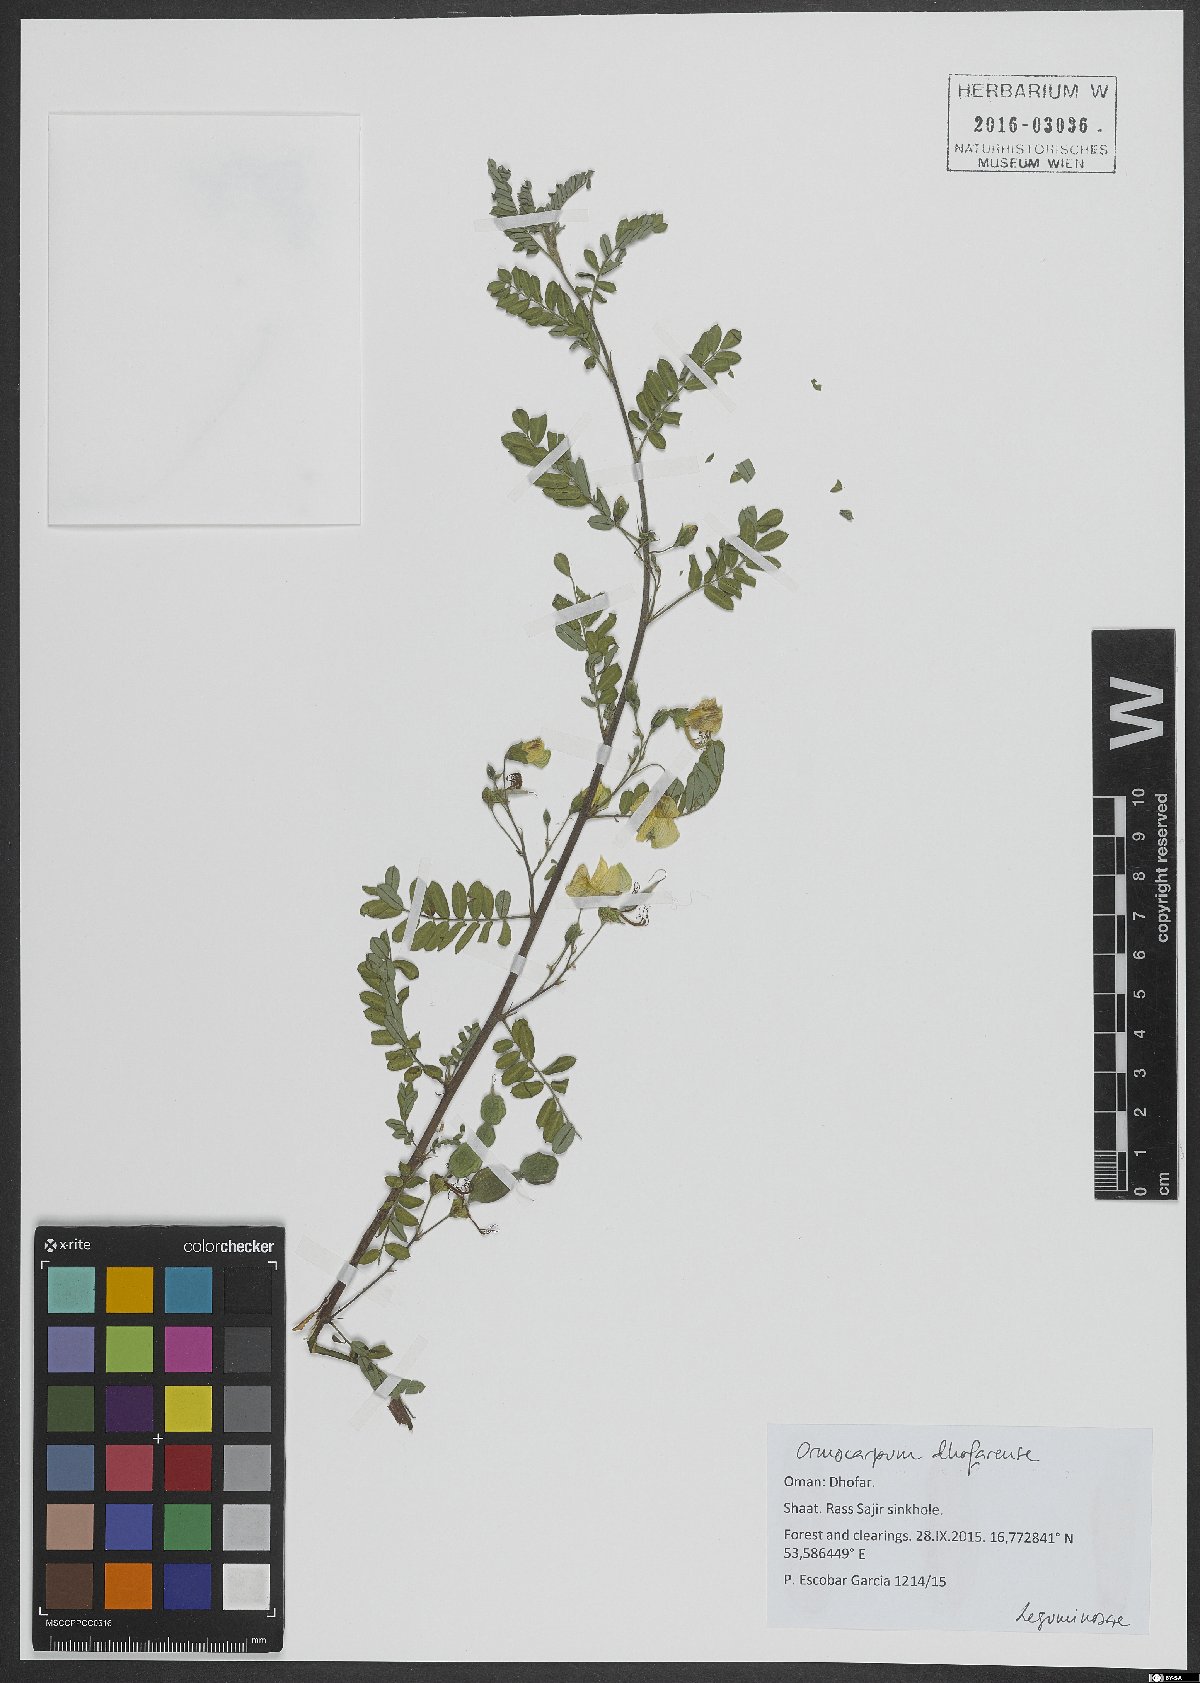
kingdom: Plantae
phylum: Tracheophyta
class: Magnoliopsida
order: Fabales
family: Fabaceae
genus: Zygocarpum
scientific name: Zygocarpum dhofarense
